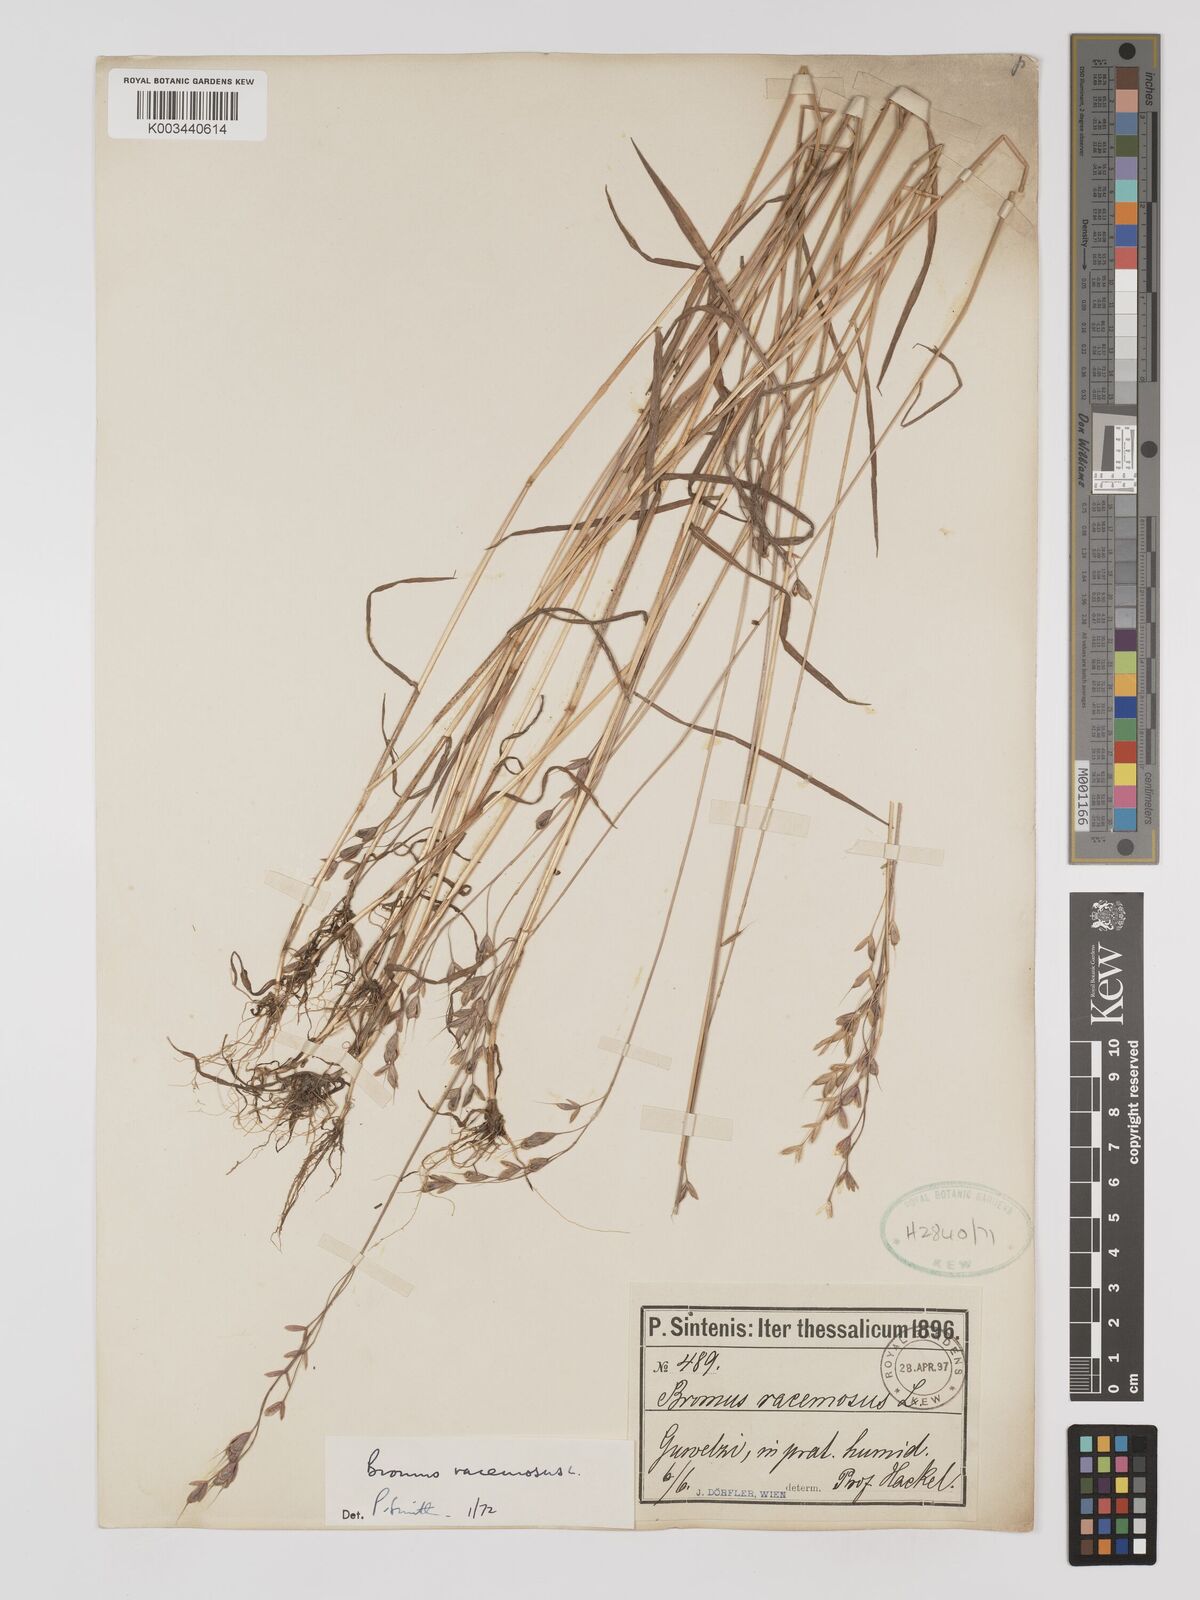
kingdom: Plantae
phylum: Tracheophyta
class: Liliopsida
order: Poales
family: Poaceae
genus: Bromus
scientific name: Bromus racemosus
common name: Bald brome
